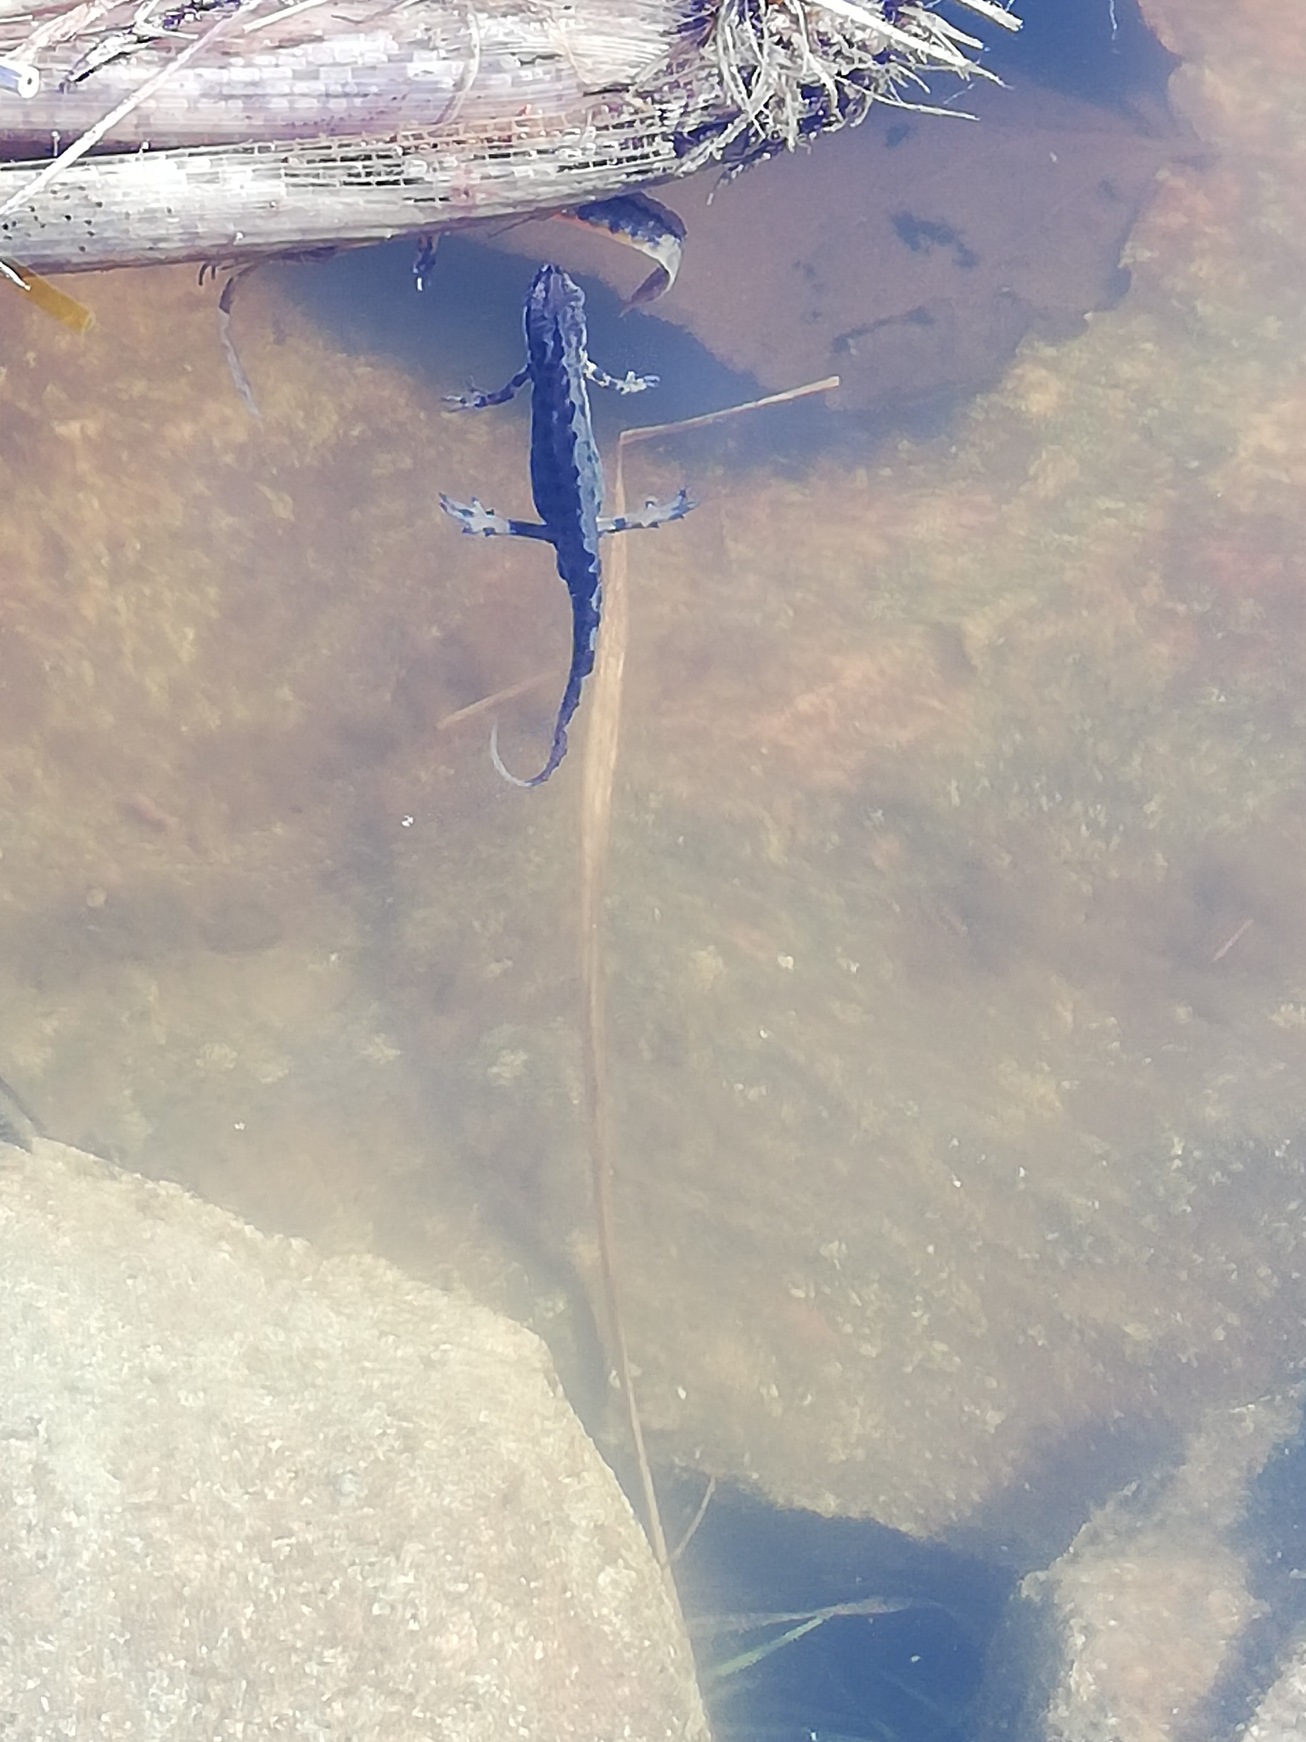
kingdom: Animalia
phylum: Chordata
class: Amphibia
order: Caudata
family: Salamandridae
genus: Lissotriton
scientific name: Lissotriton vulgaris
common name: Lille vandsalamander
